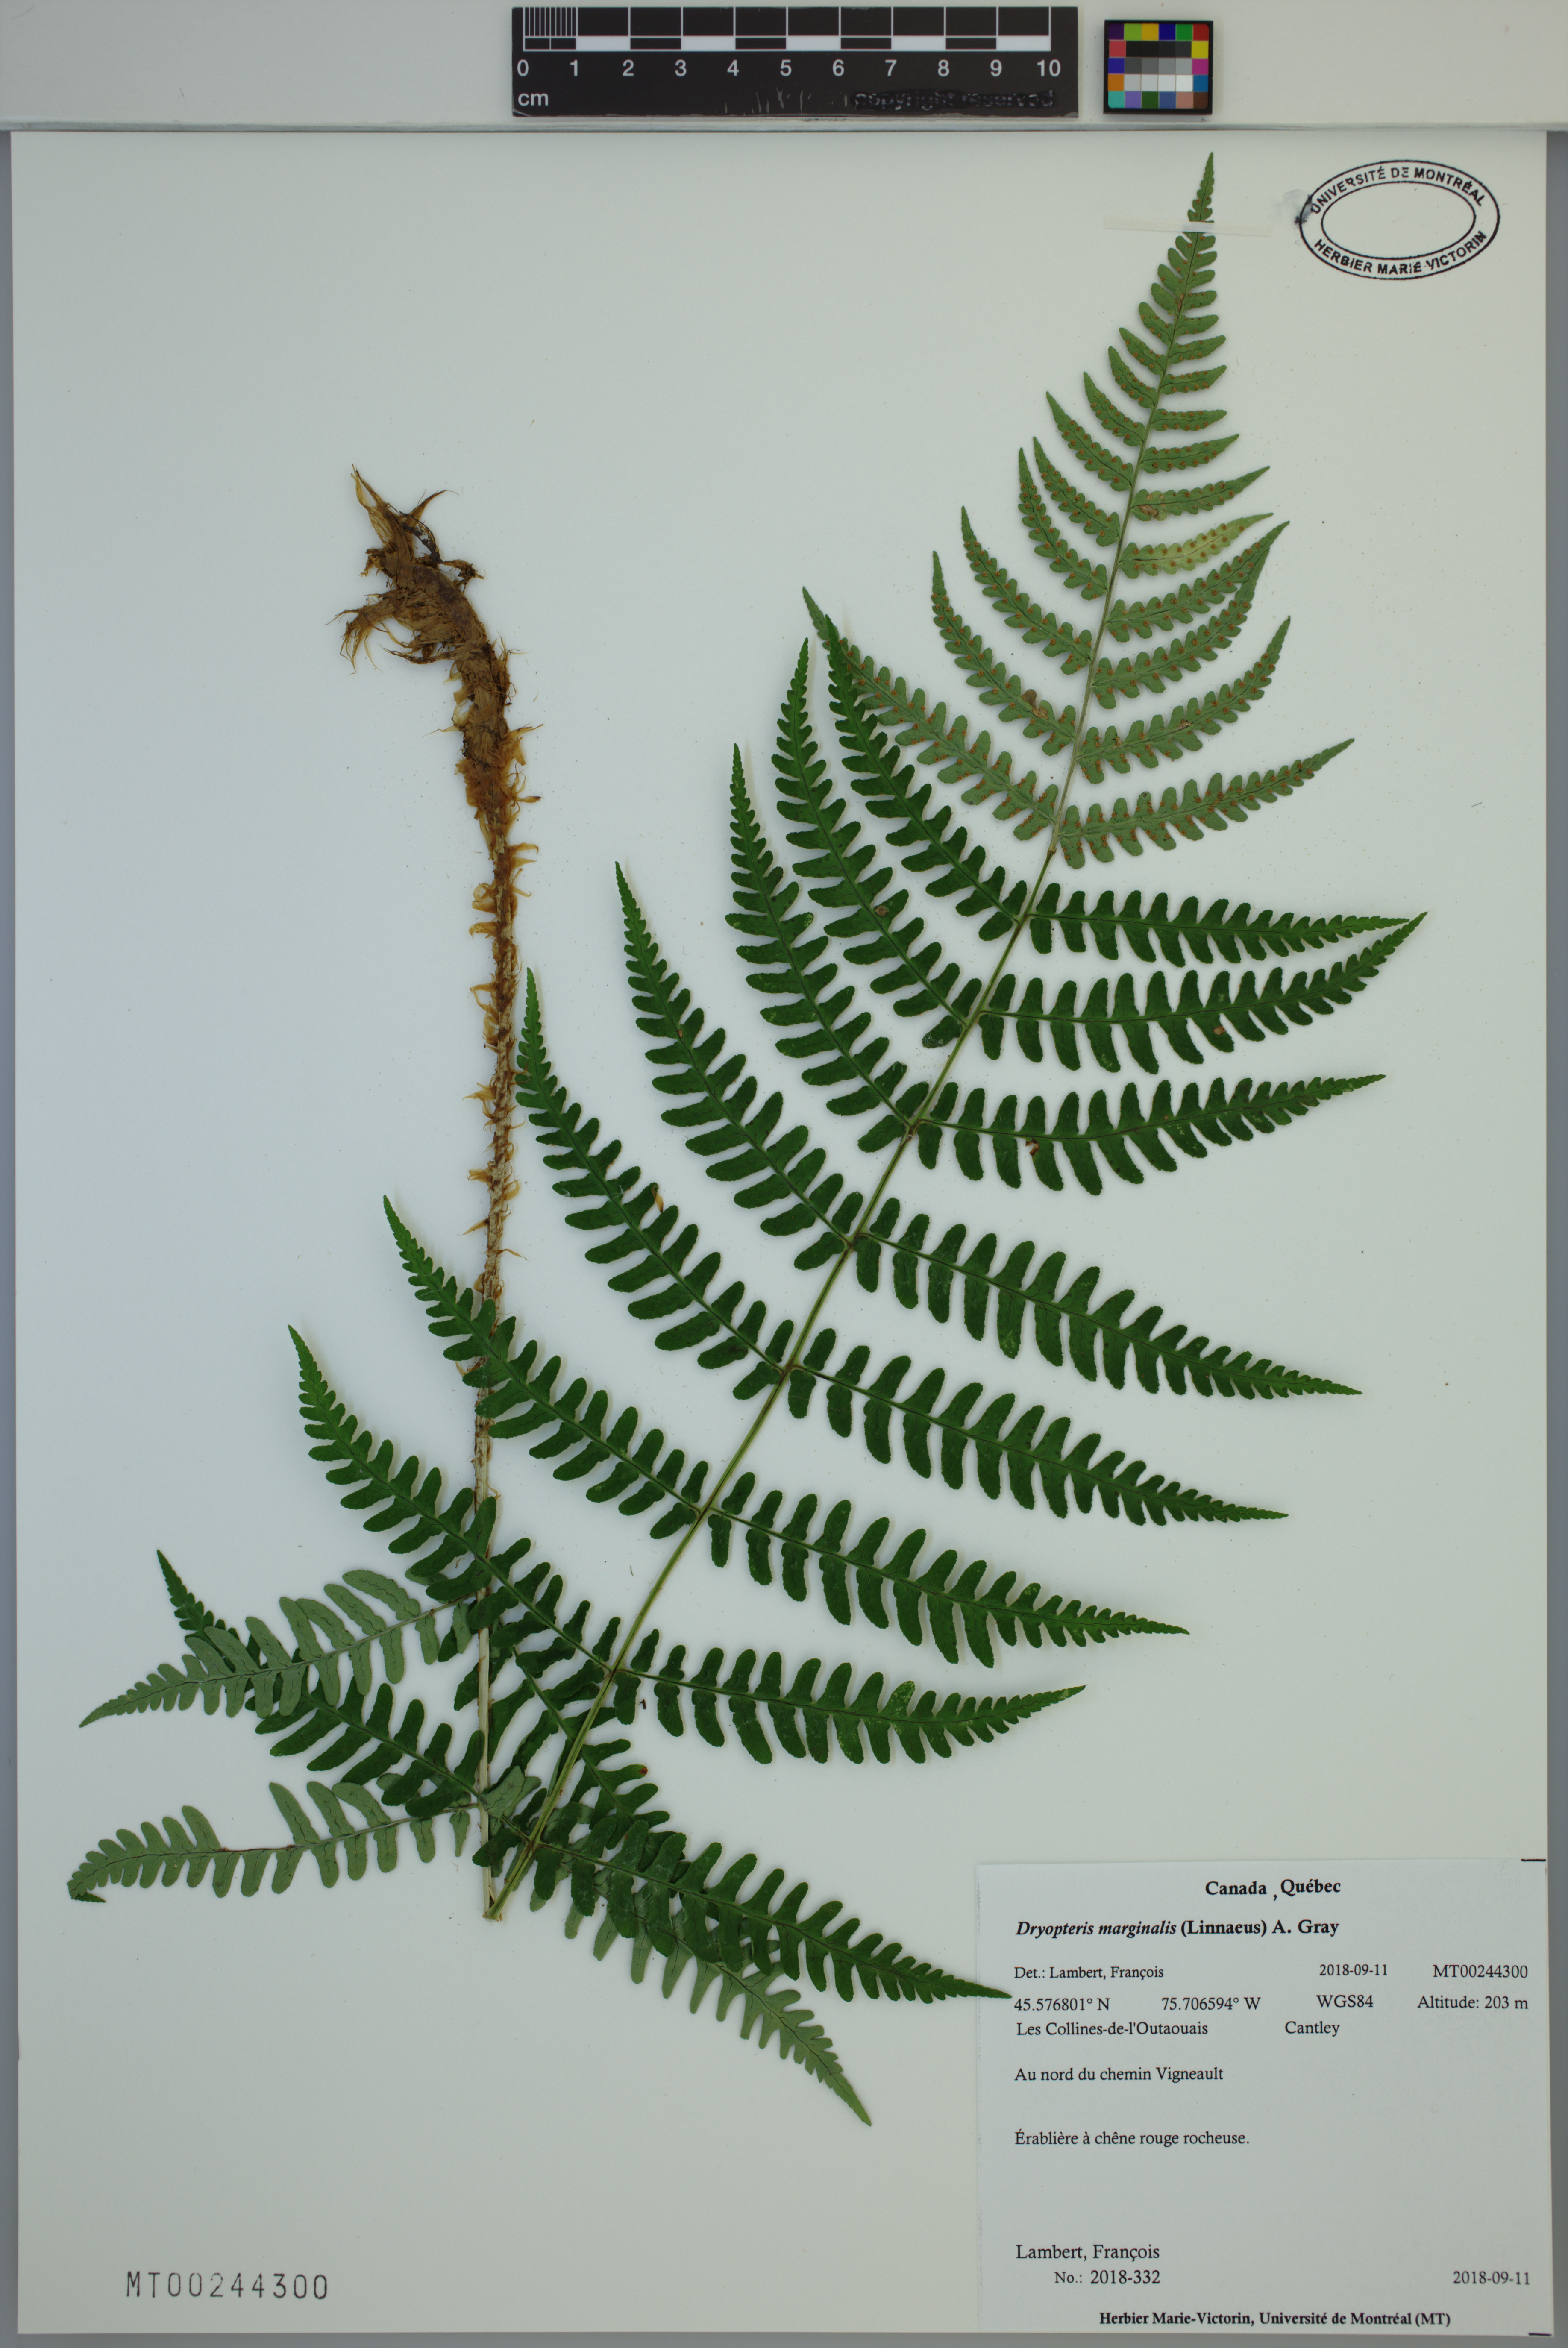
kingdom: Plantae
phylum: Tracheophyta
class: Polypodiopsida
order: Polypodiales
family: Dryopteridaceae
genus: Dryopteris
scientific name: Dryopteris marginalis
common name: Marginal wood fern
